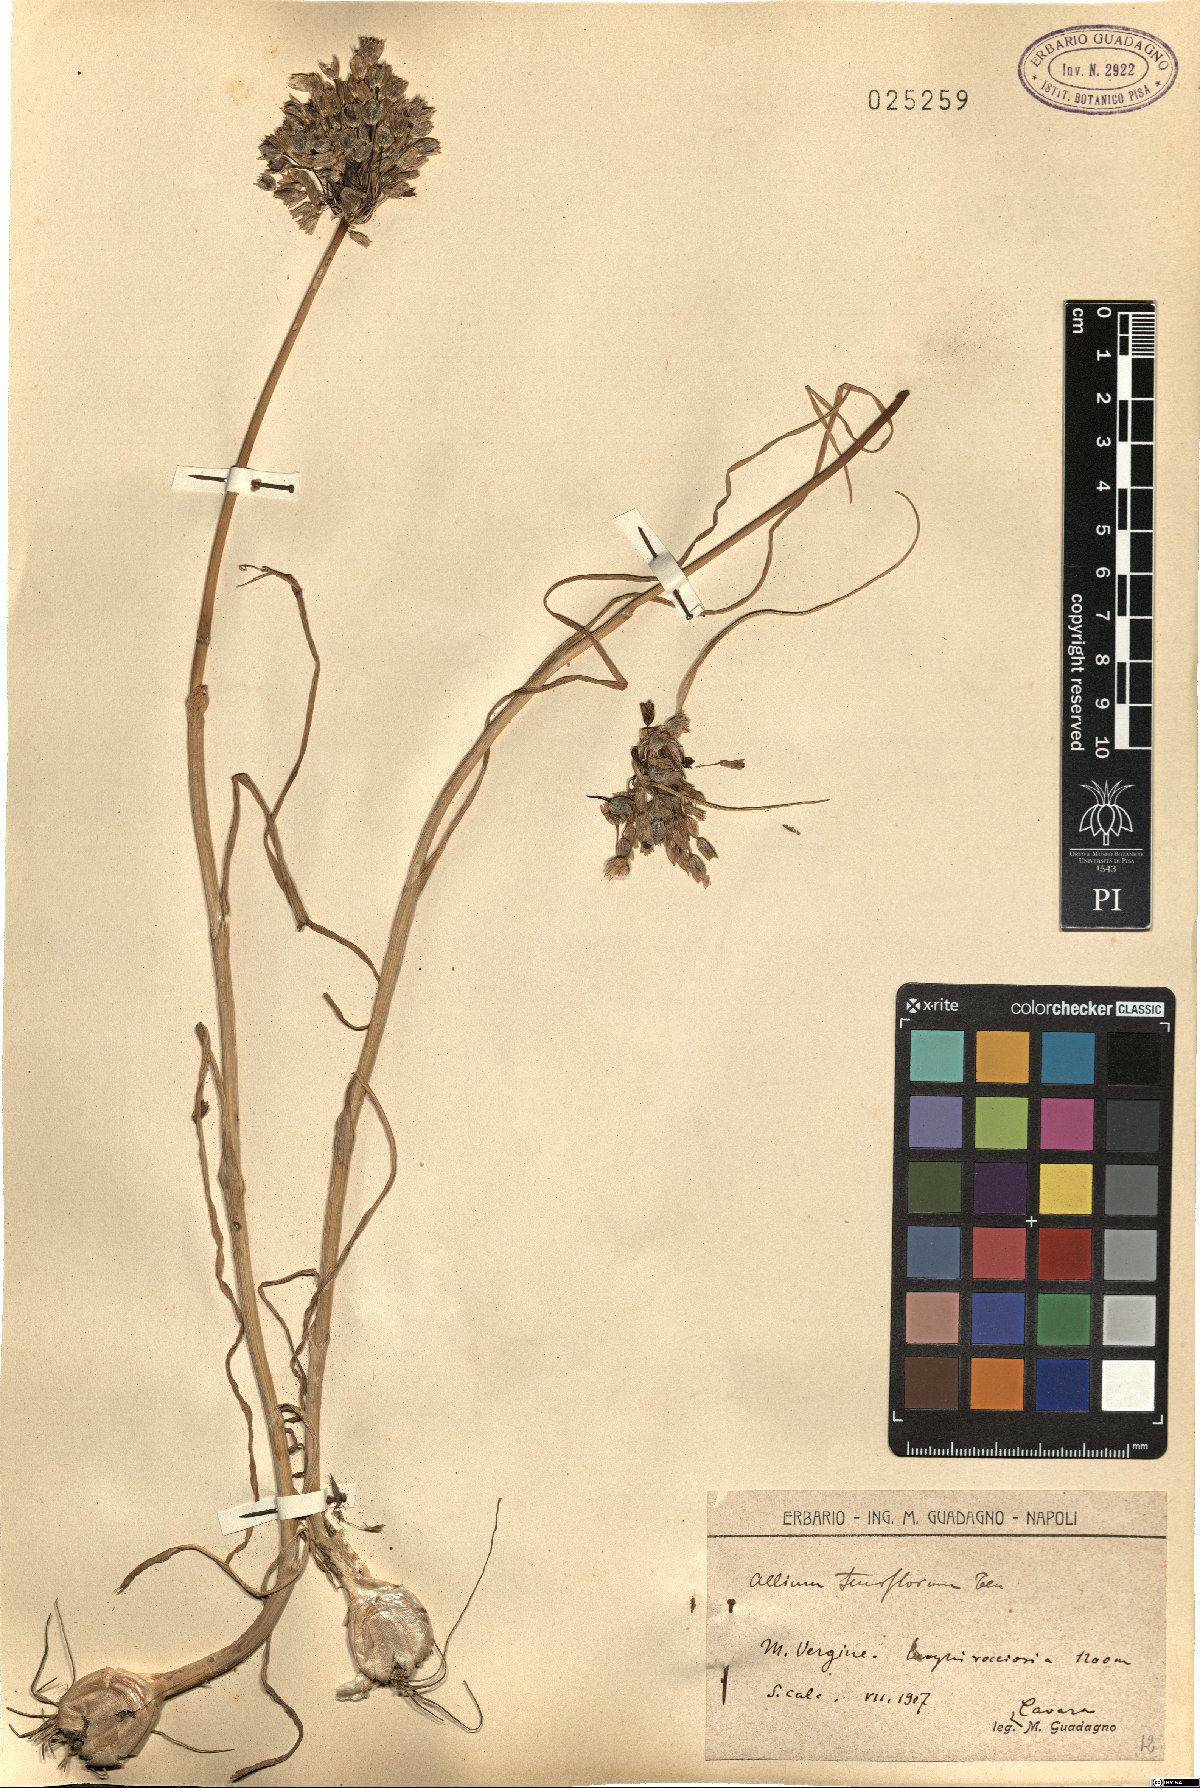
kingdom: Plantae
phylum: Tracheophyta
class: Liliopsida
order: Asparagales
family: Amaryllidaceae
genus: Allium
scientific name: Allium tenuiflorum
